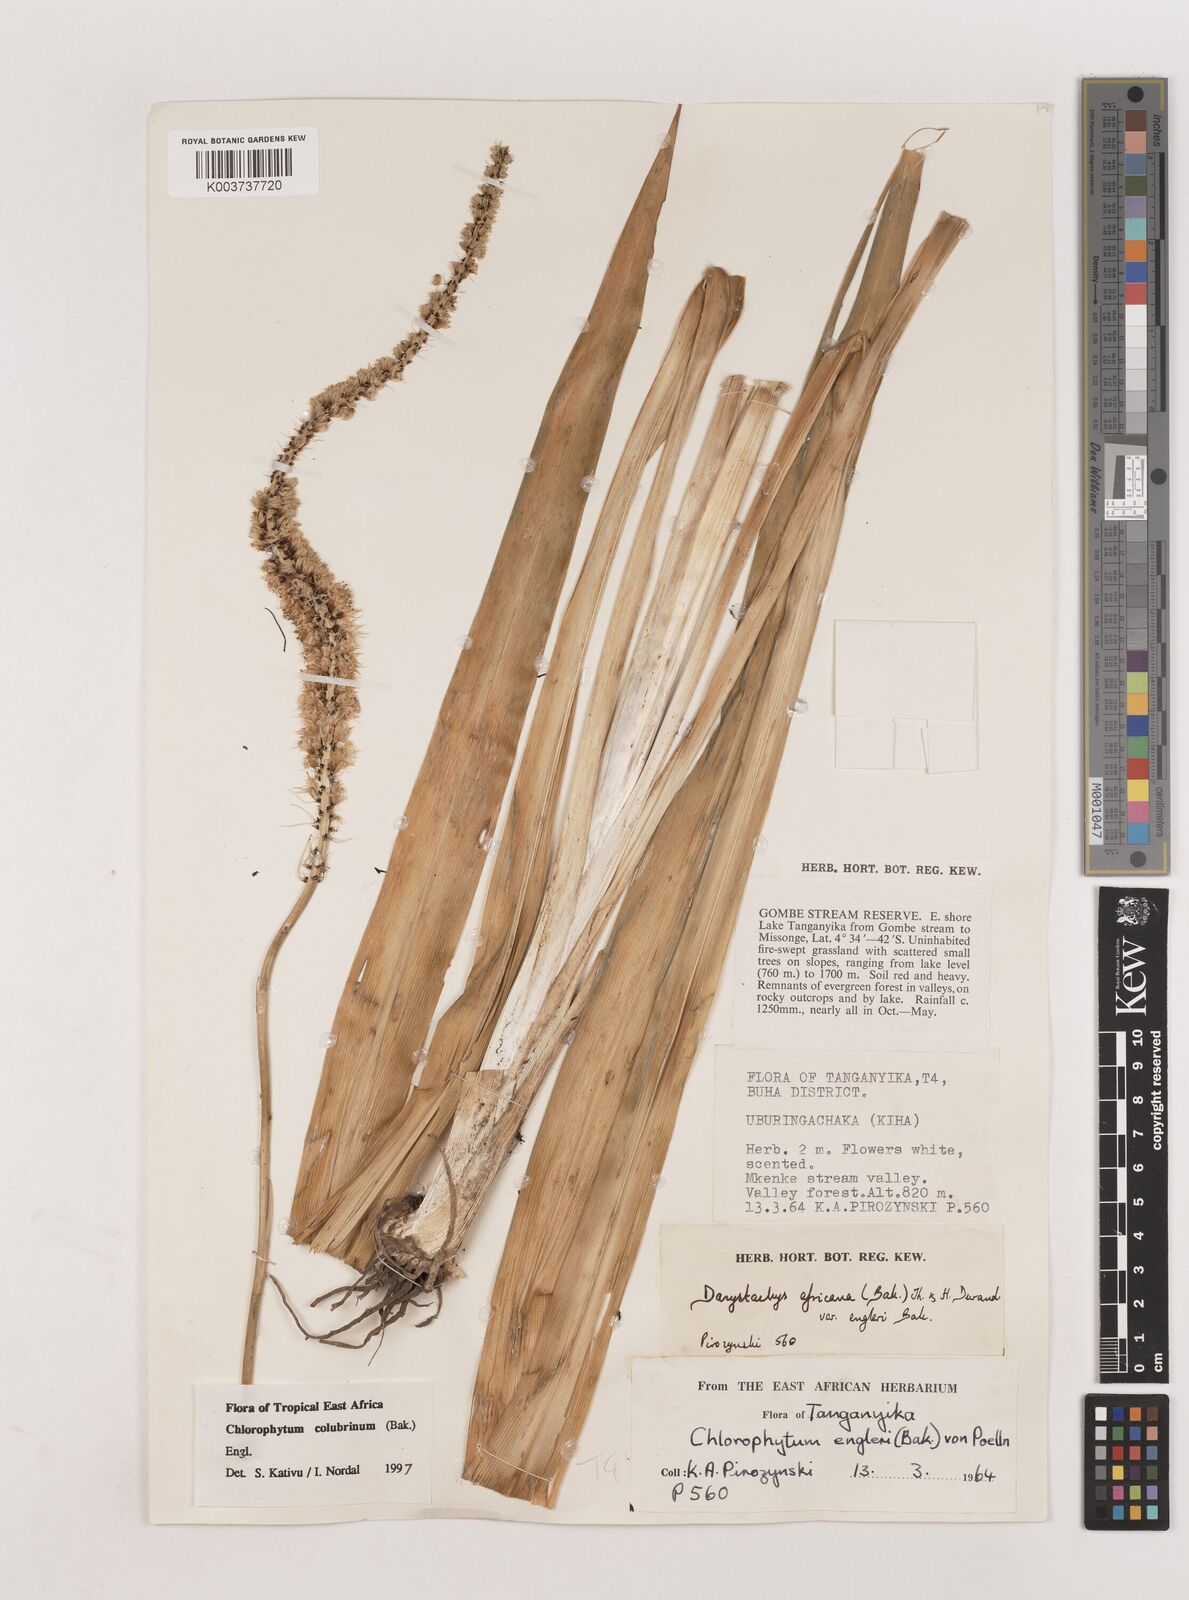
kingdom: Plantae
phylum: Tracheophyta
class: Liliopsida
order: Asparagales
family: Asparagaceae
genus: Chlorophytum
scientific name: Chlorophytum colubrinum
